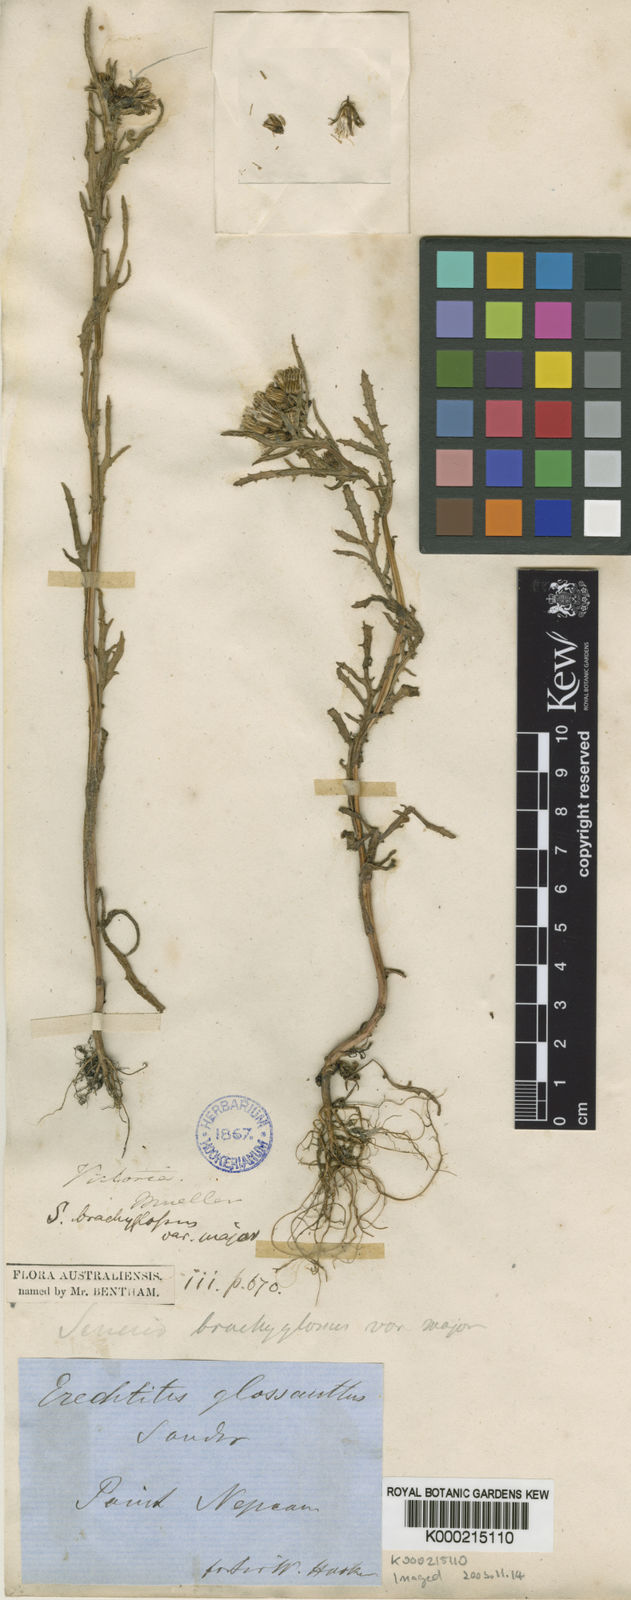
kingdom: Plantae
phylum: Tracheophyta
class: Magnoliopsida
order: Asterales
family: Asteraceae
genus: Senecio
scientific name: Senecio glossanthus
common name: Slender groundsel
